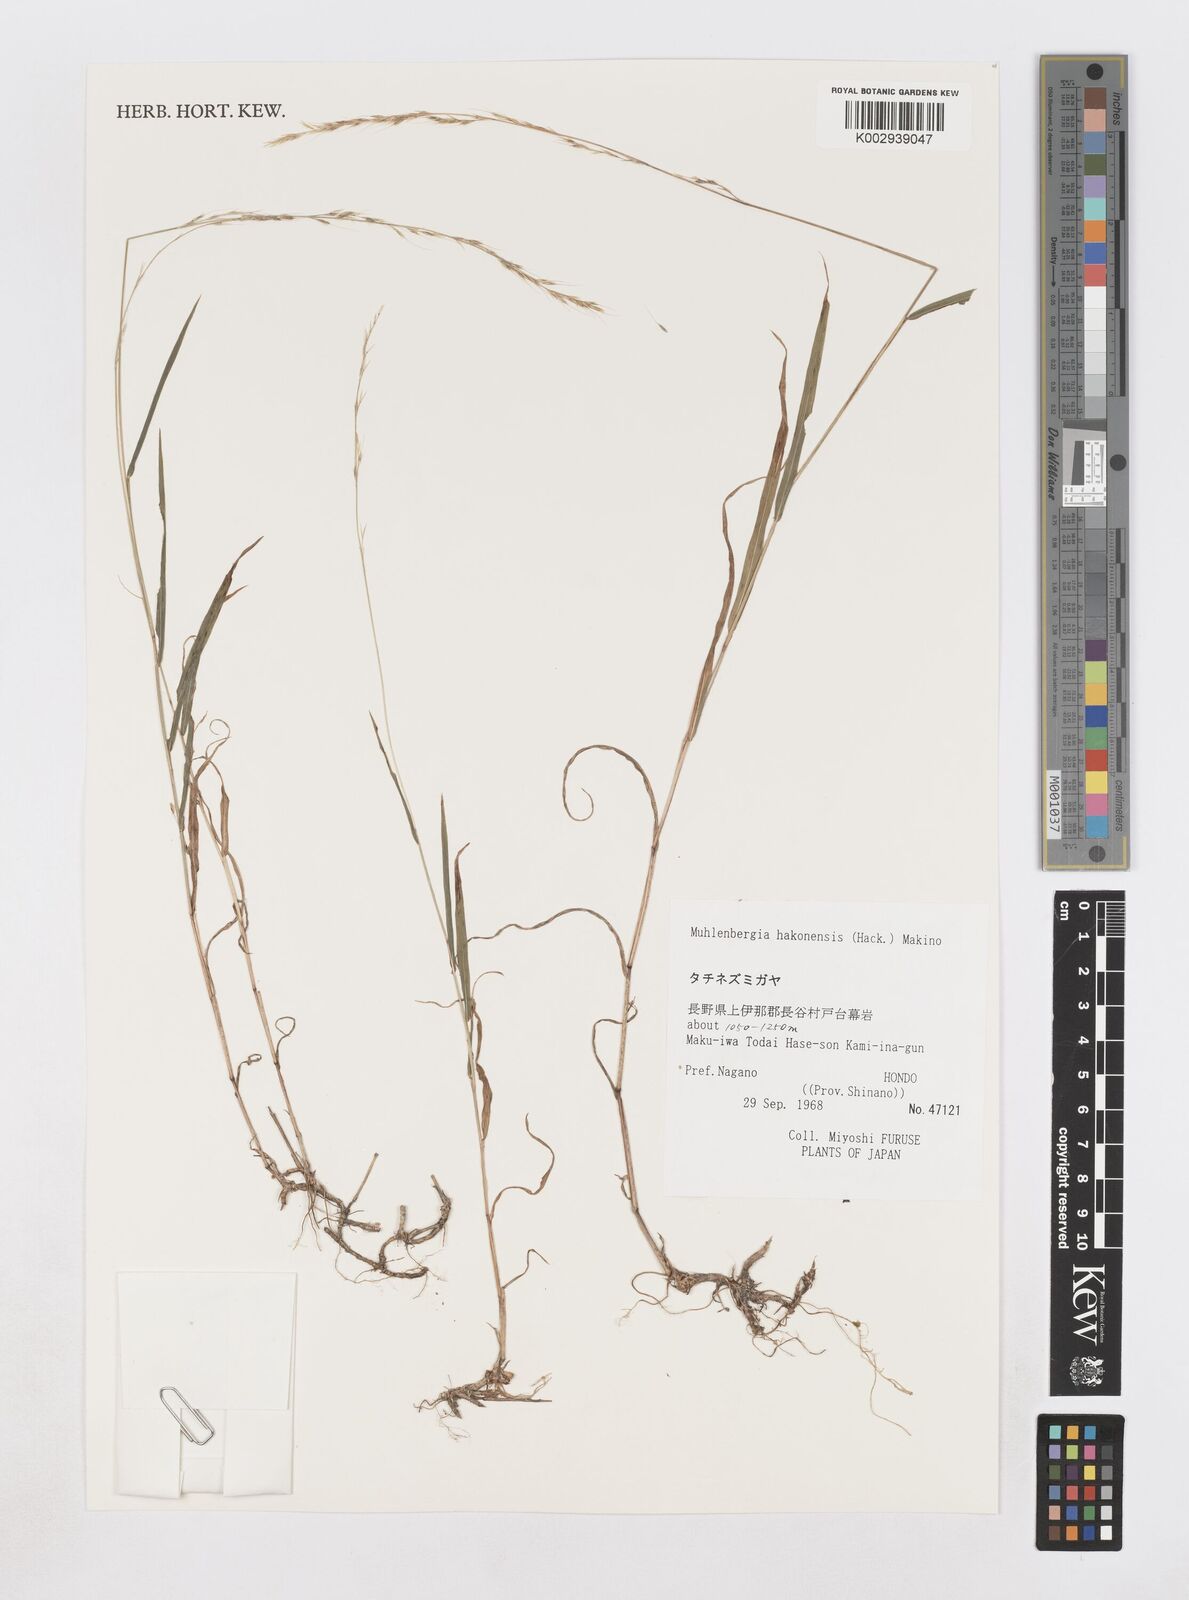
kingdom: Plantae
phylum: Tracheophyta
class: Liliopsida
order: Poales
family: Poaceae
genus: Muhlenbergia
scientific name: Muhlenbergia hakonensis
